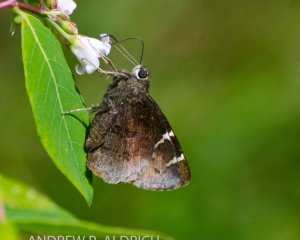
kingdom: Animalia
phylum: Arthropoda
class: Insecta
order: Lepidoptera
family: Hesperiidae
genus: Autochton
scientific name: Autochton
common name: Southern Cloudywing
